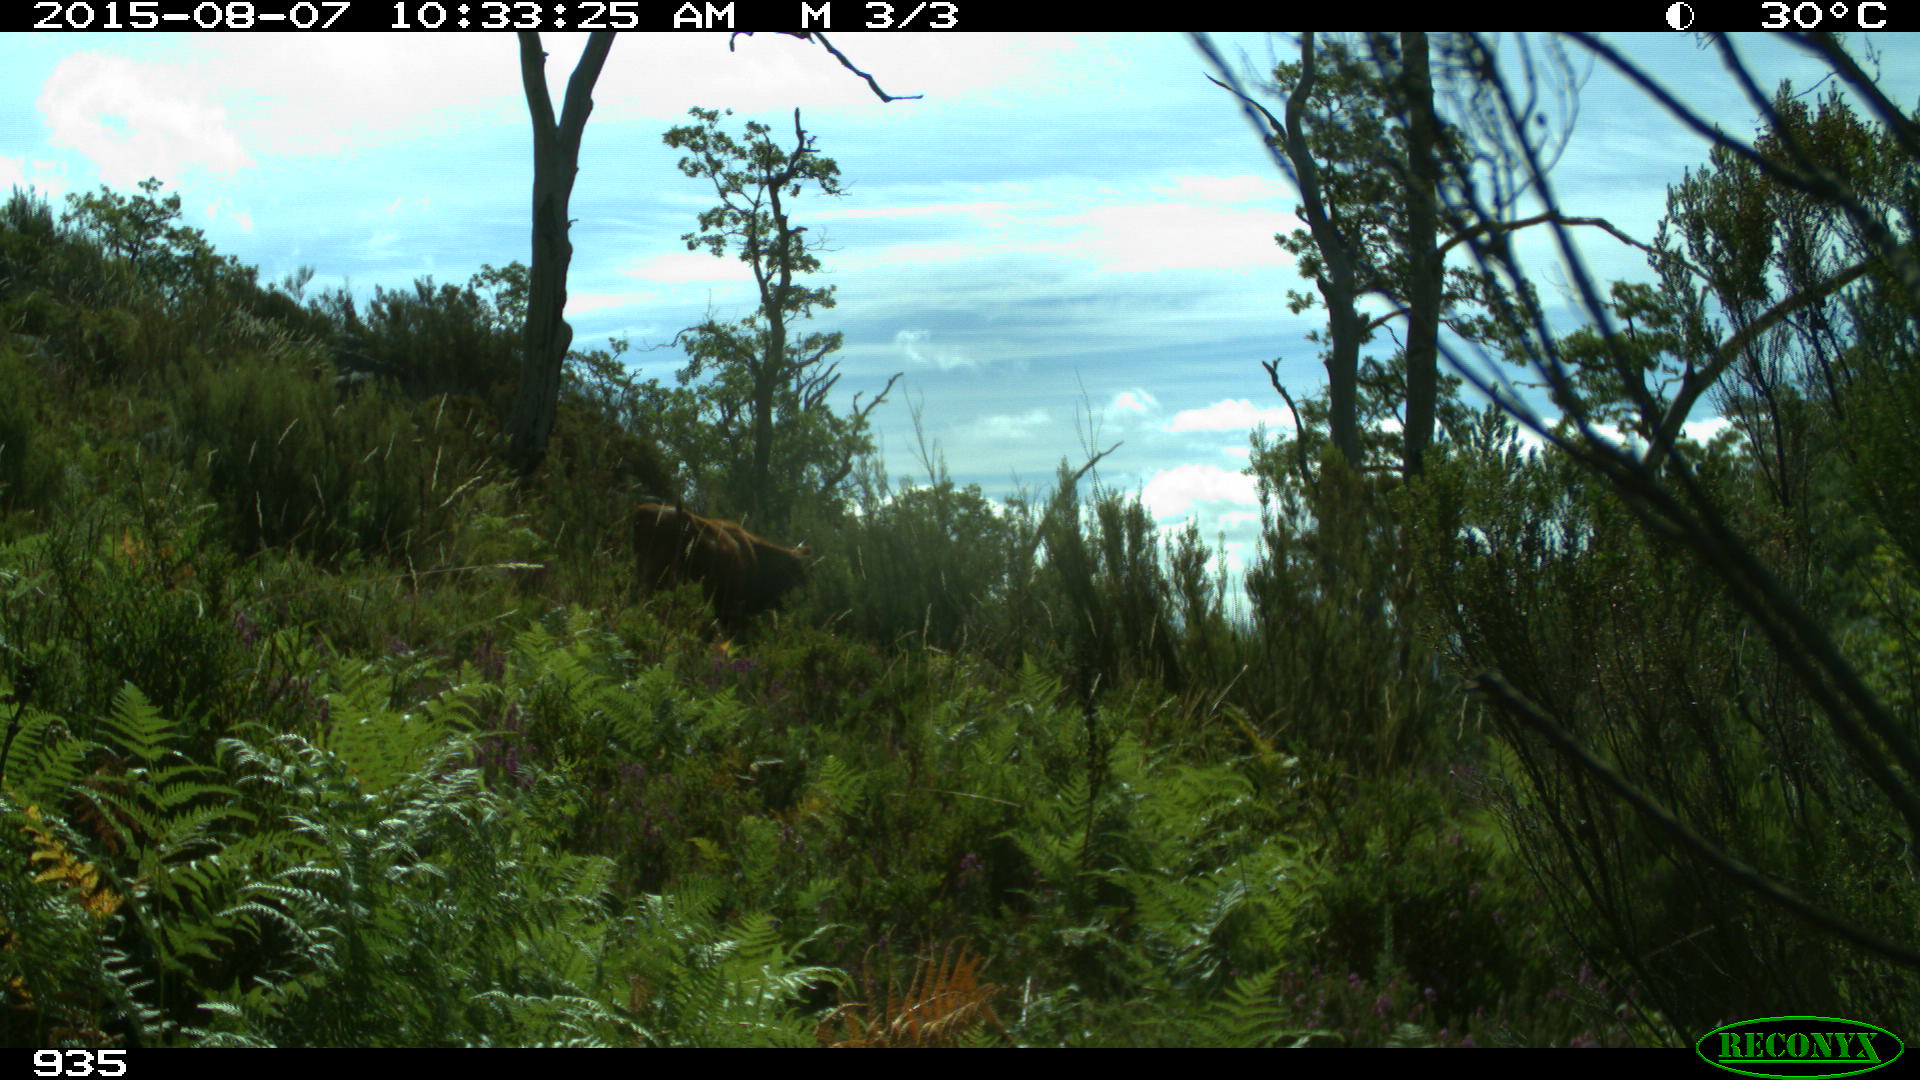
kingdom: Animalia
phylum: Chordata
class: Mammalia
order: Artiodactyla
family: Bovidae
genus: Bos
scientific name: Bos taurus
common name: Domesticated cattle
